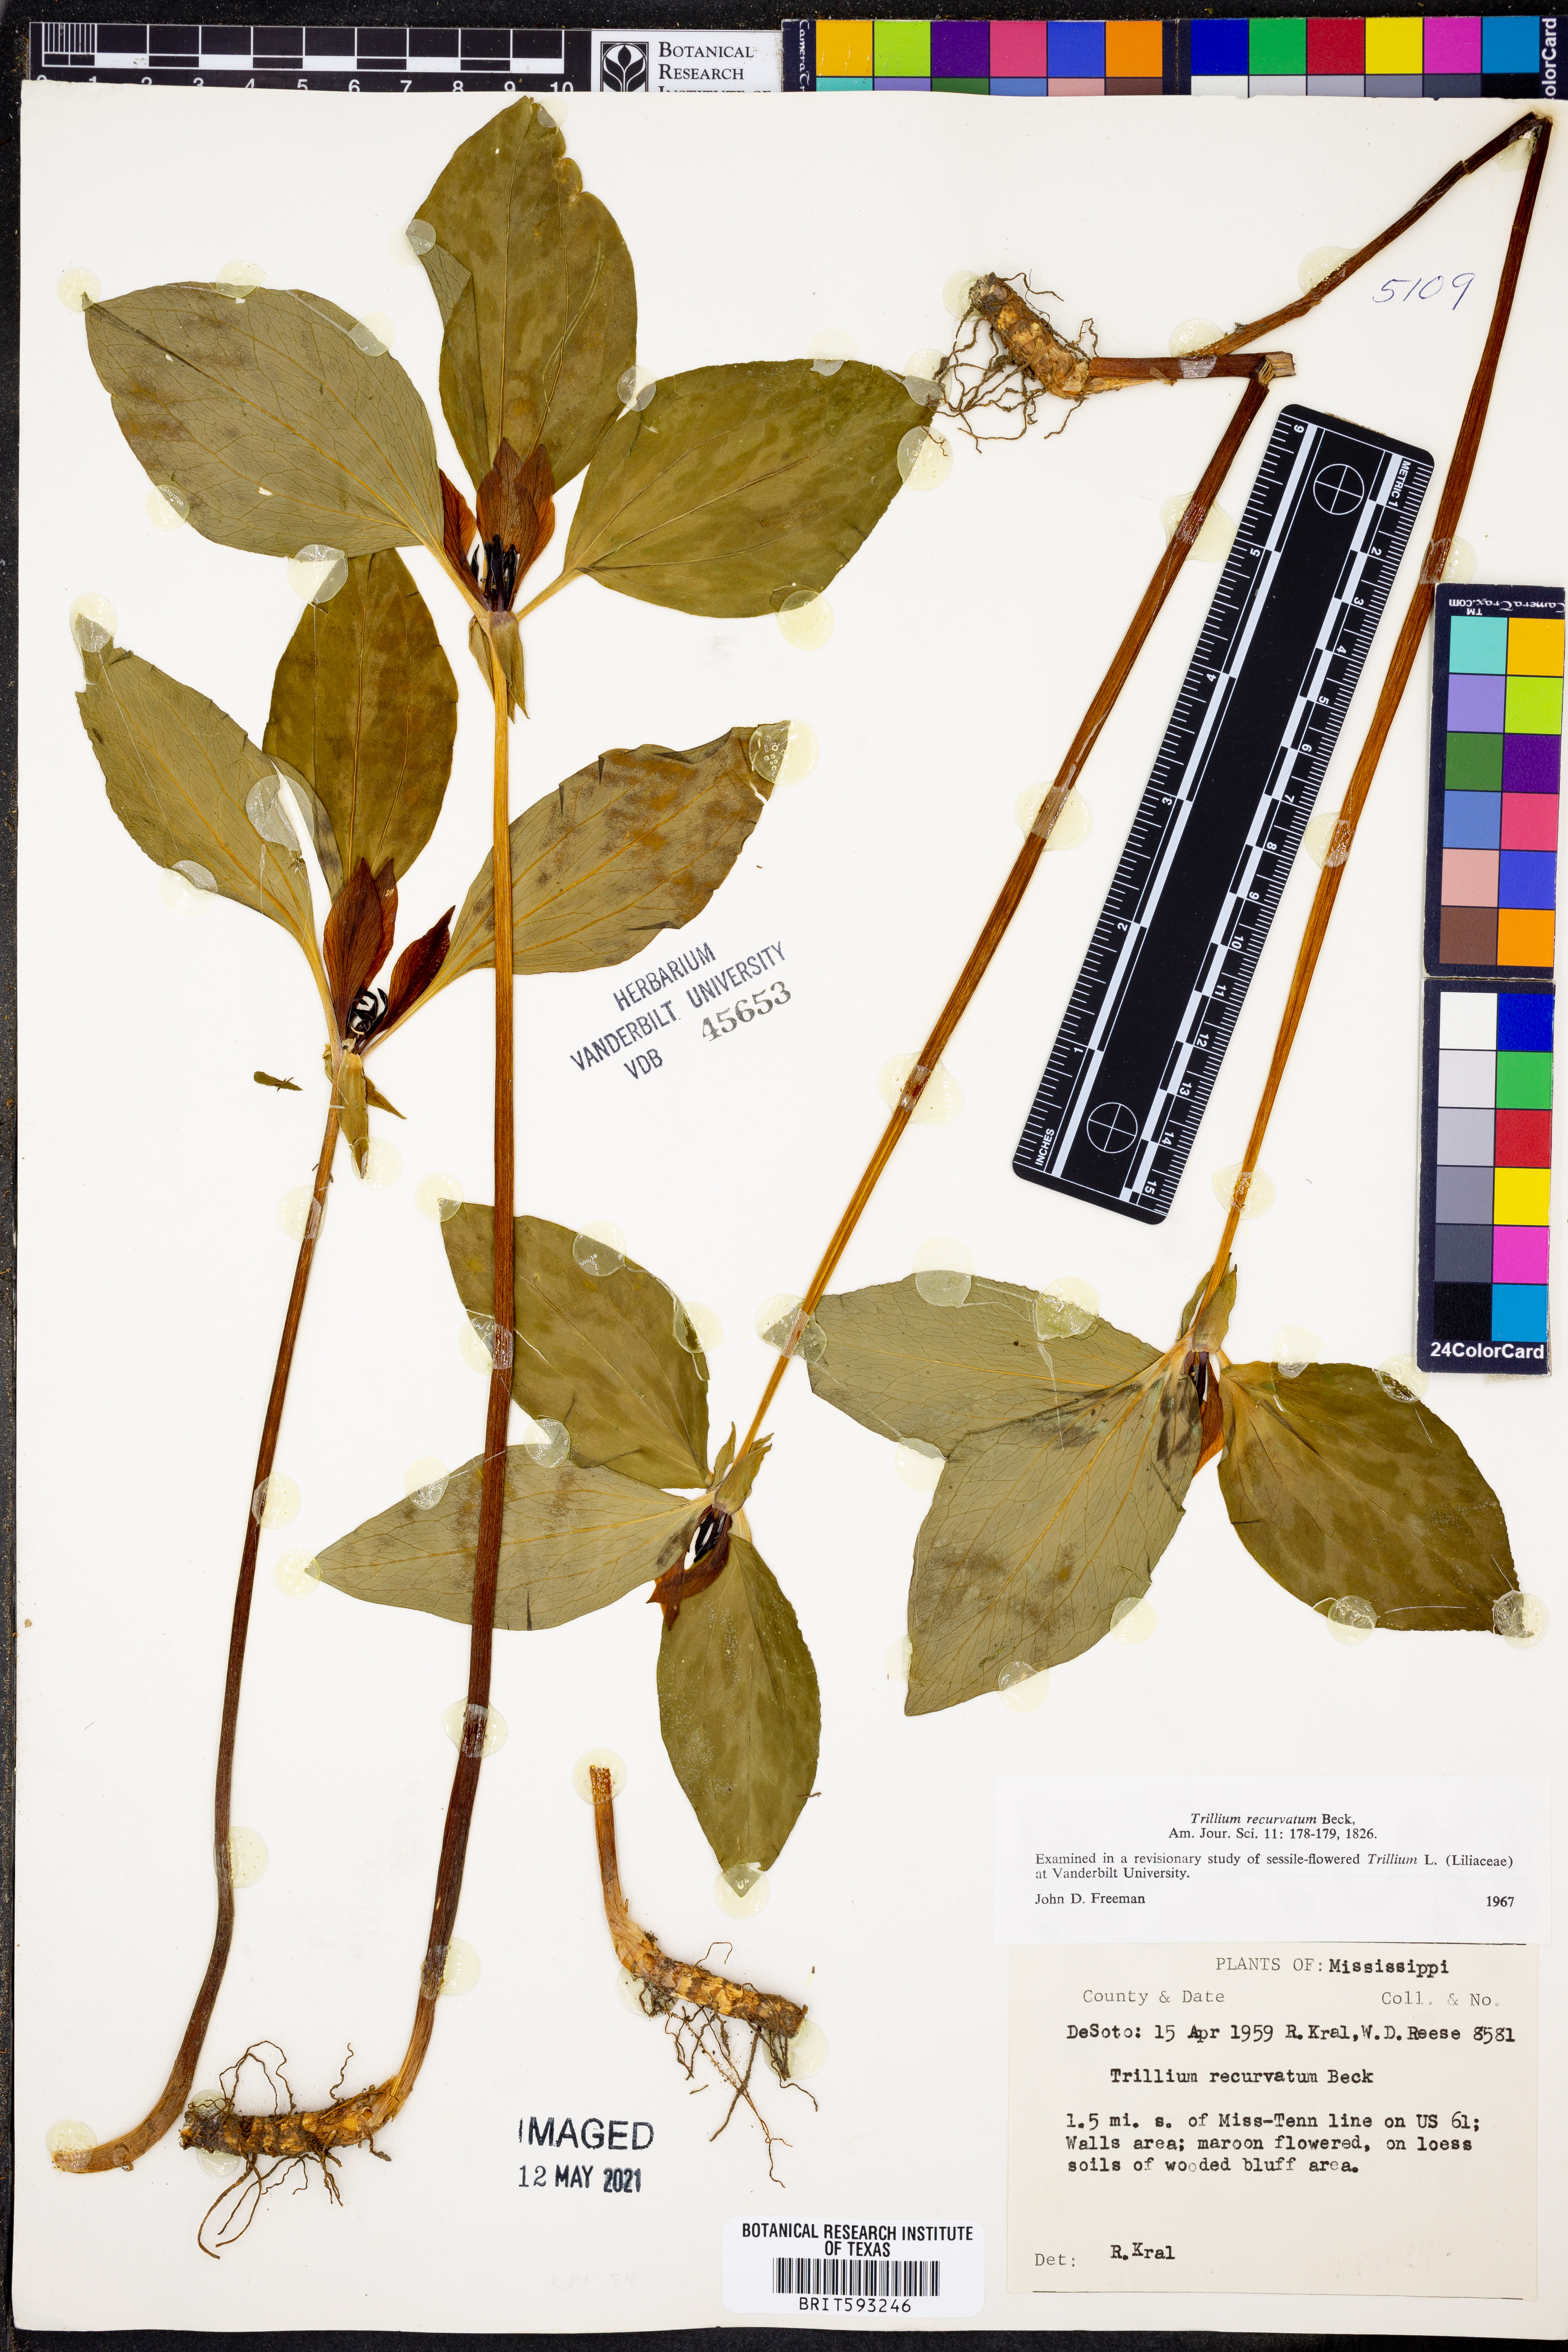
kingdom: Plantae
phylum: Tracheophyta
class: Liliopsida
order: Liliales
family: Melanthiaceae
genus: Trillium
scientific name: Trillium recurvatum
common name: Bloody butcher
